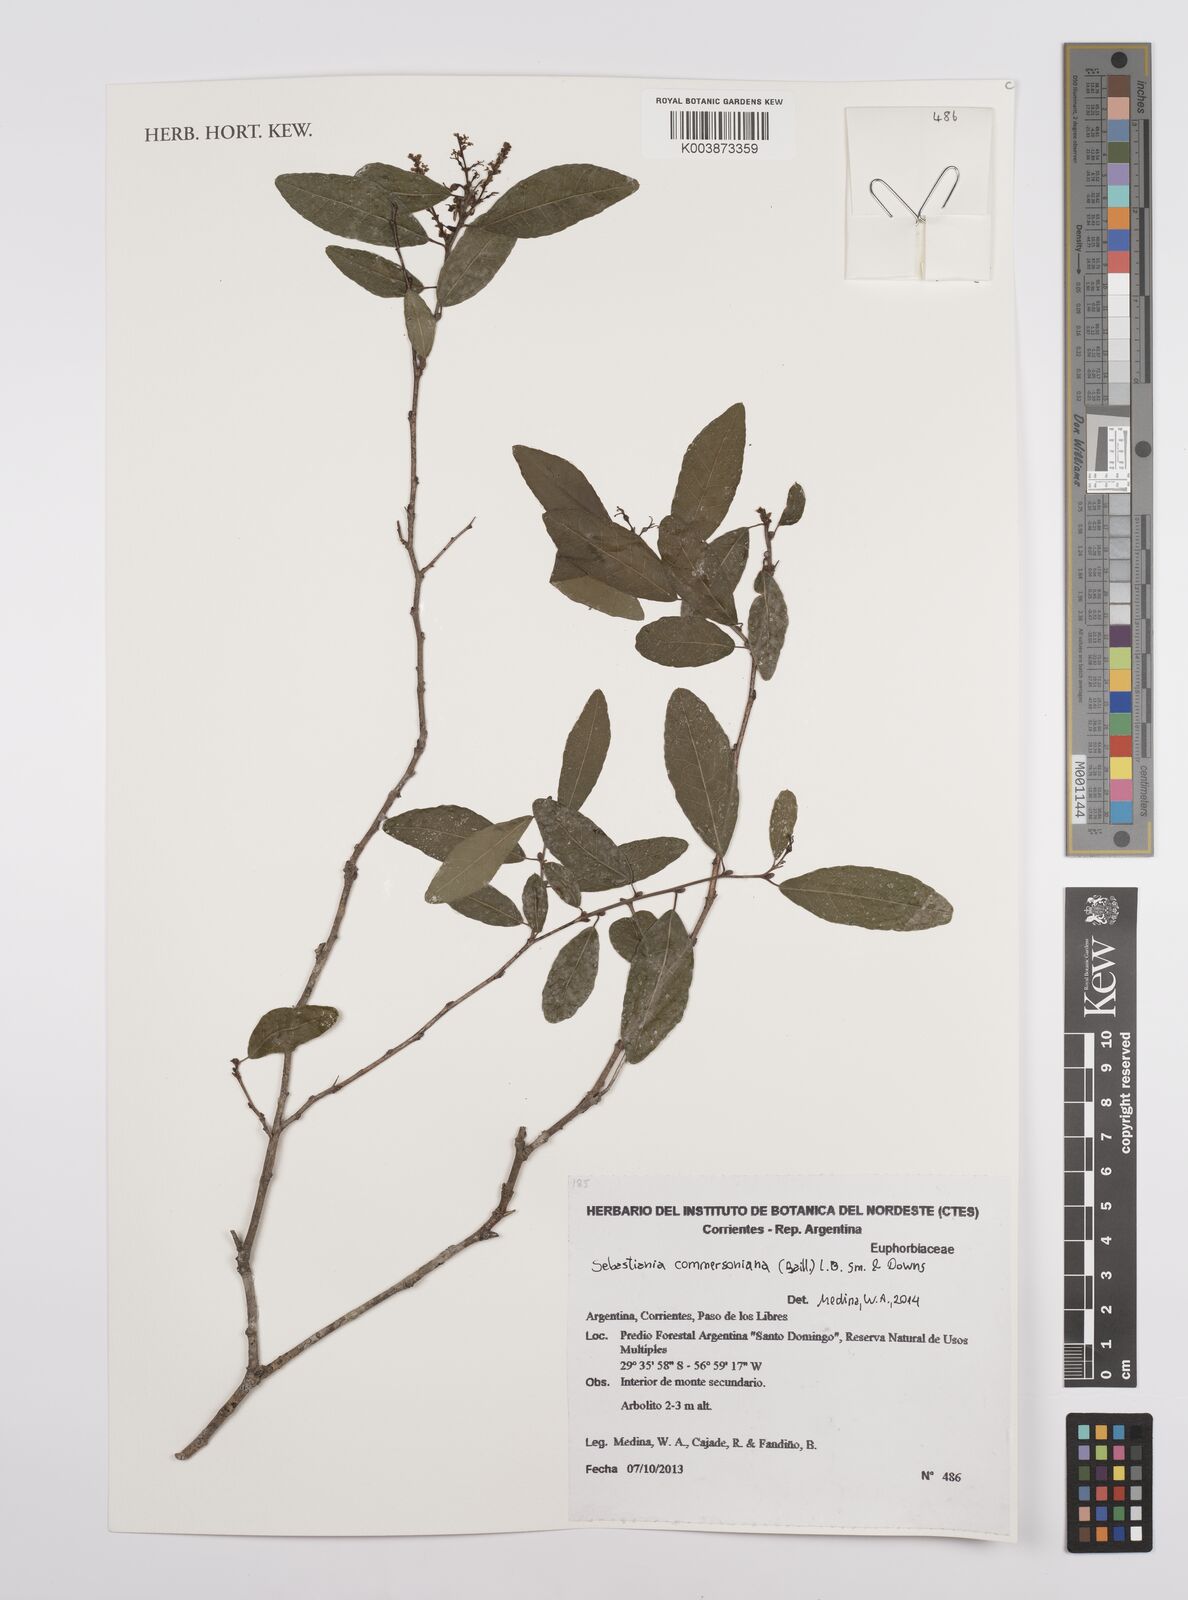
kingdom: Plantae
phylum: Tracheophyta
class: Magnoliopsida
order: Malpighiales
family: Euphorbiaceae
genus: Sebastiania
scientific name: Sebastiania klotzschiana
